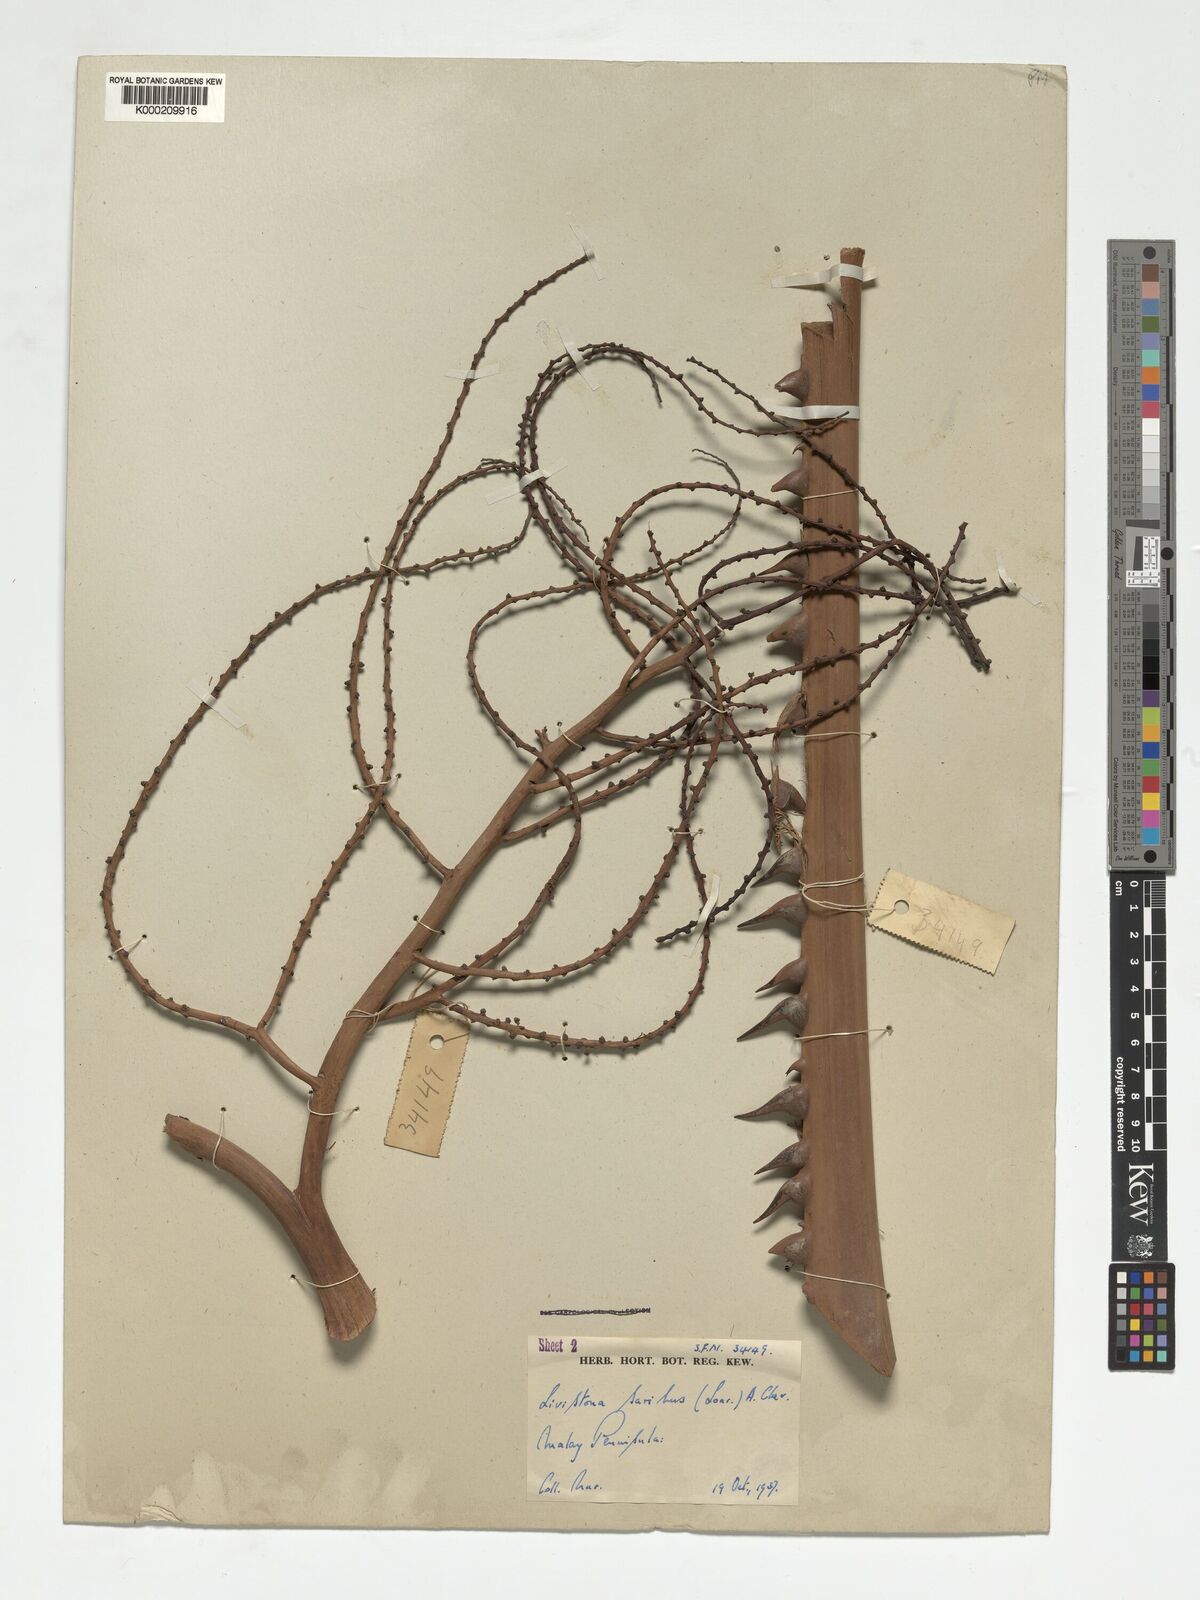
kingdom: Plantae
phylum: Tracheophyta
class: Liliopsida
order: Arecales
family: Arecaceae
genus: Livistona
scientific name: Livistona saribus
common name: Taraw palm
